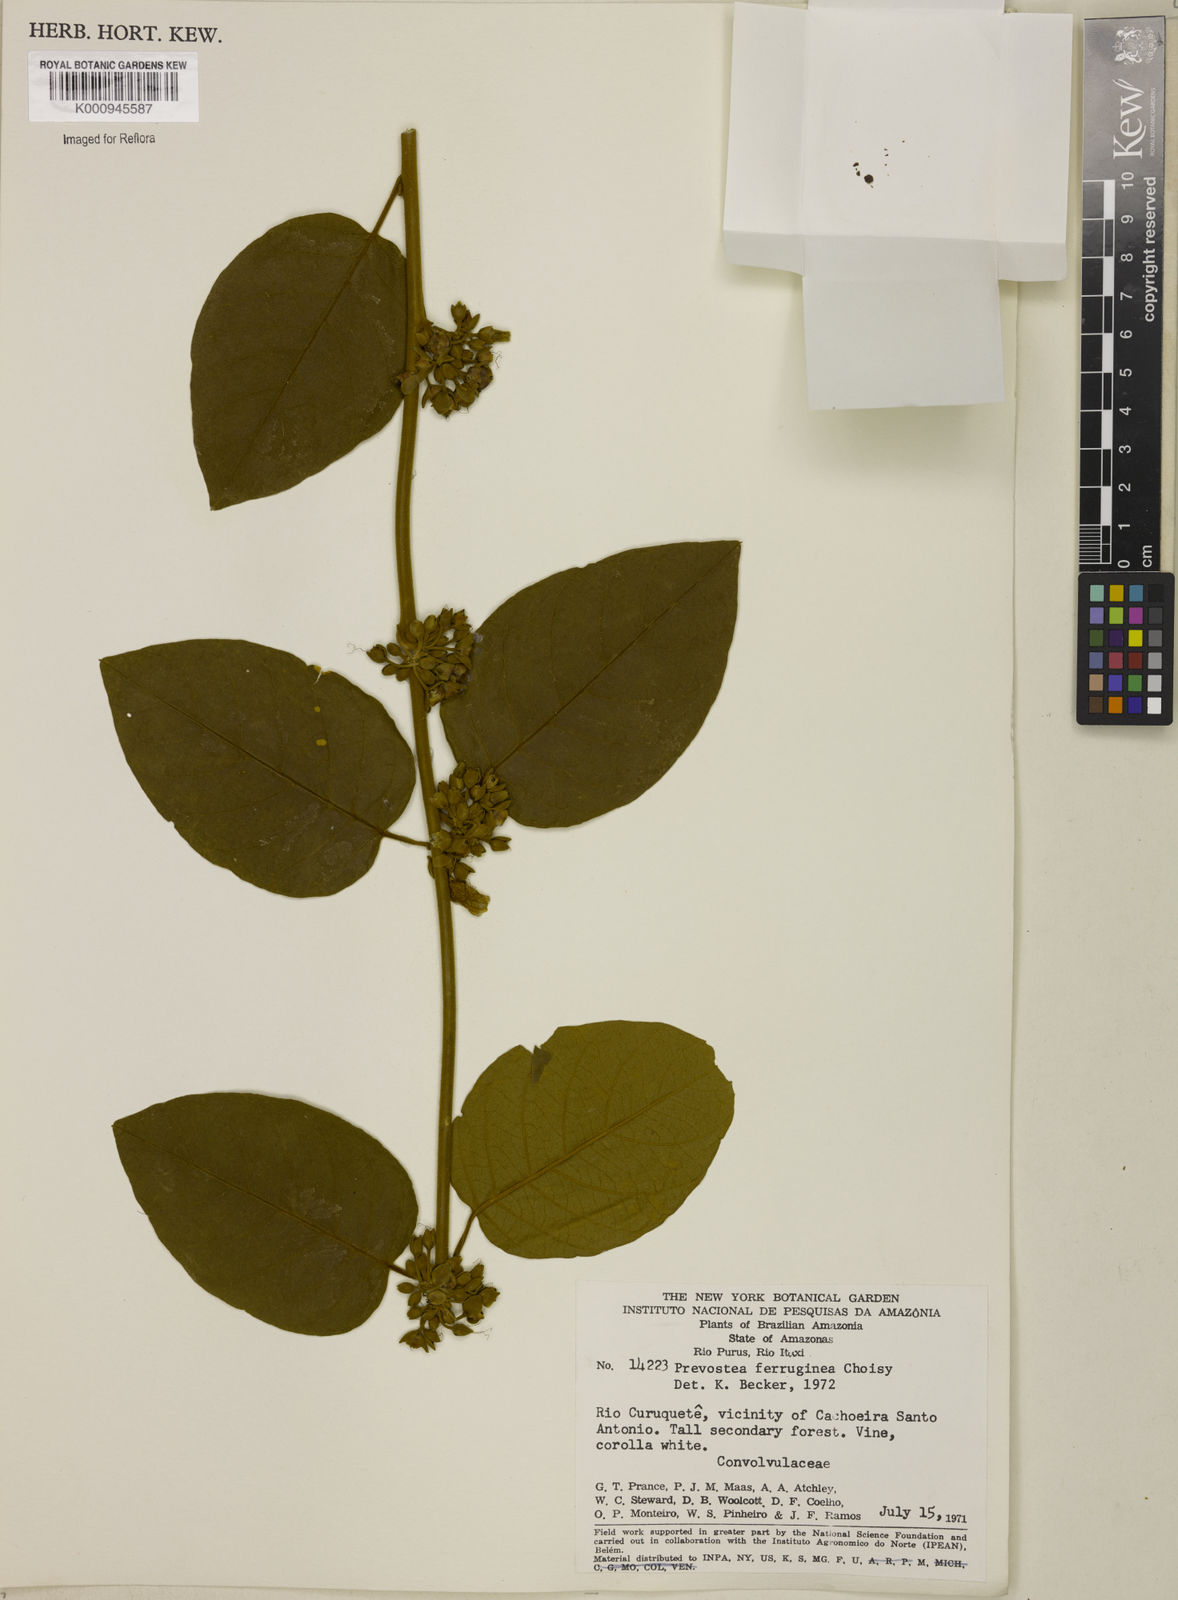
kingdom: Plantae
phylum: Tracheophyta
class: Magnoliopsida
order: Solanales
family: Convolvulaceae
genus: Bonamia
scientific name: Bonamia ferruginea
